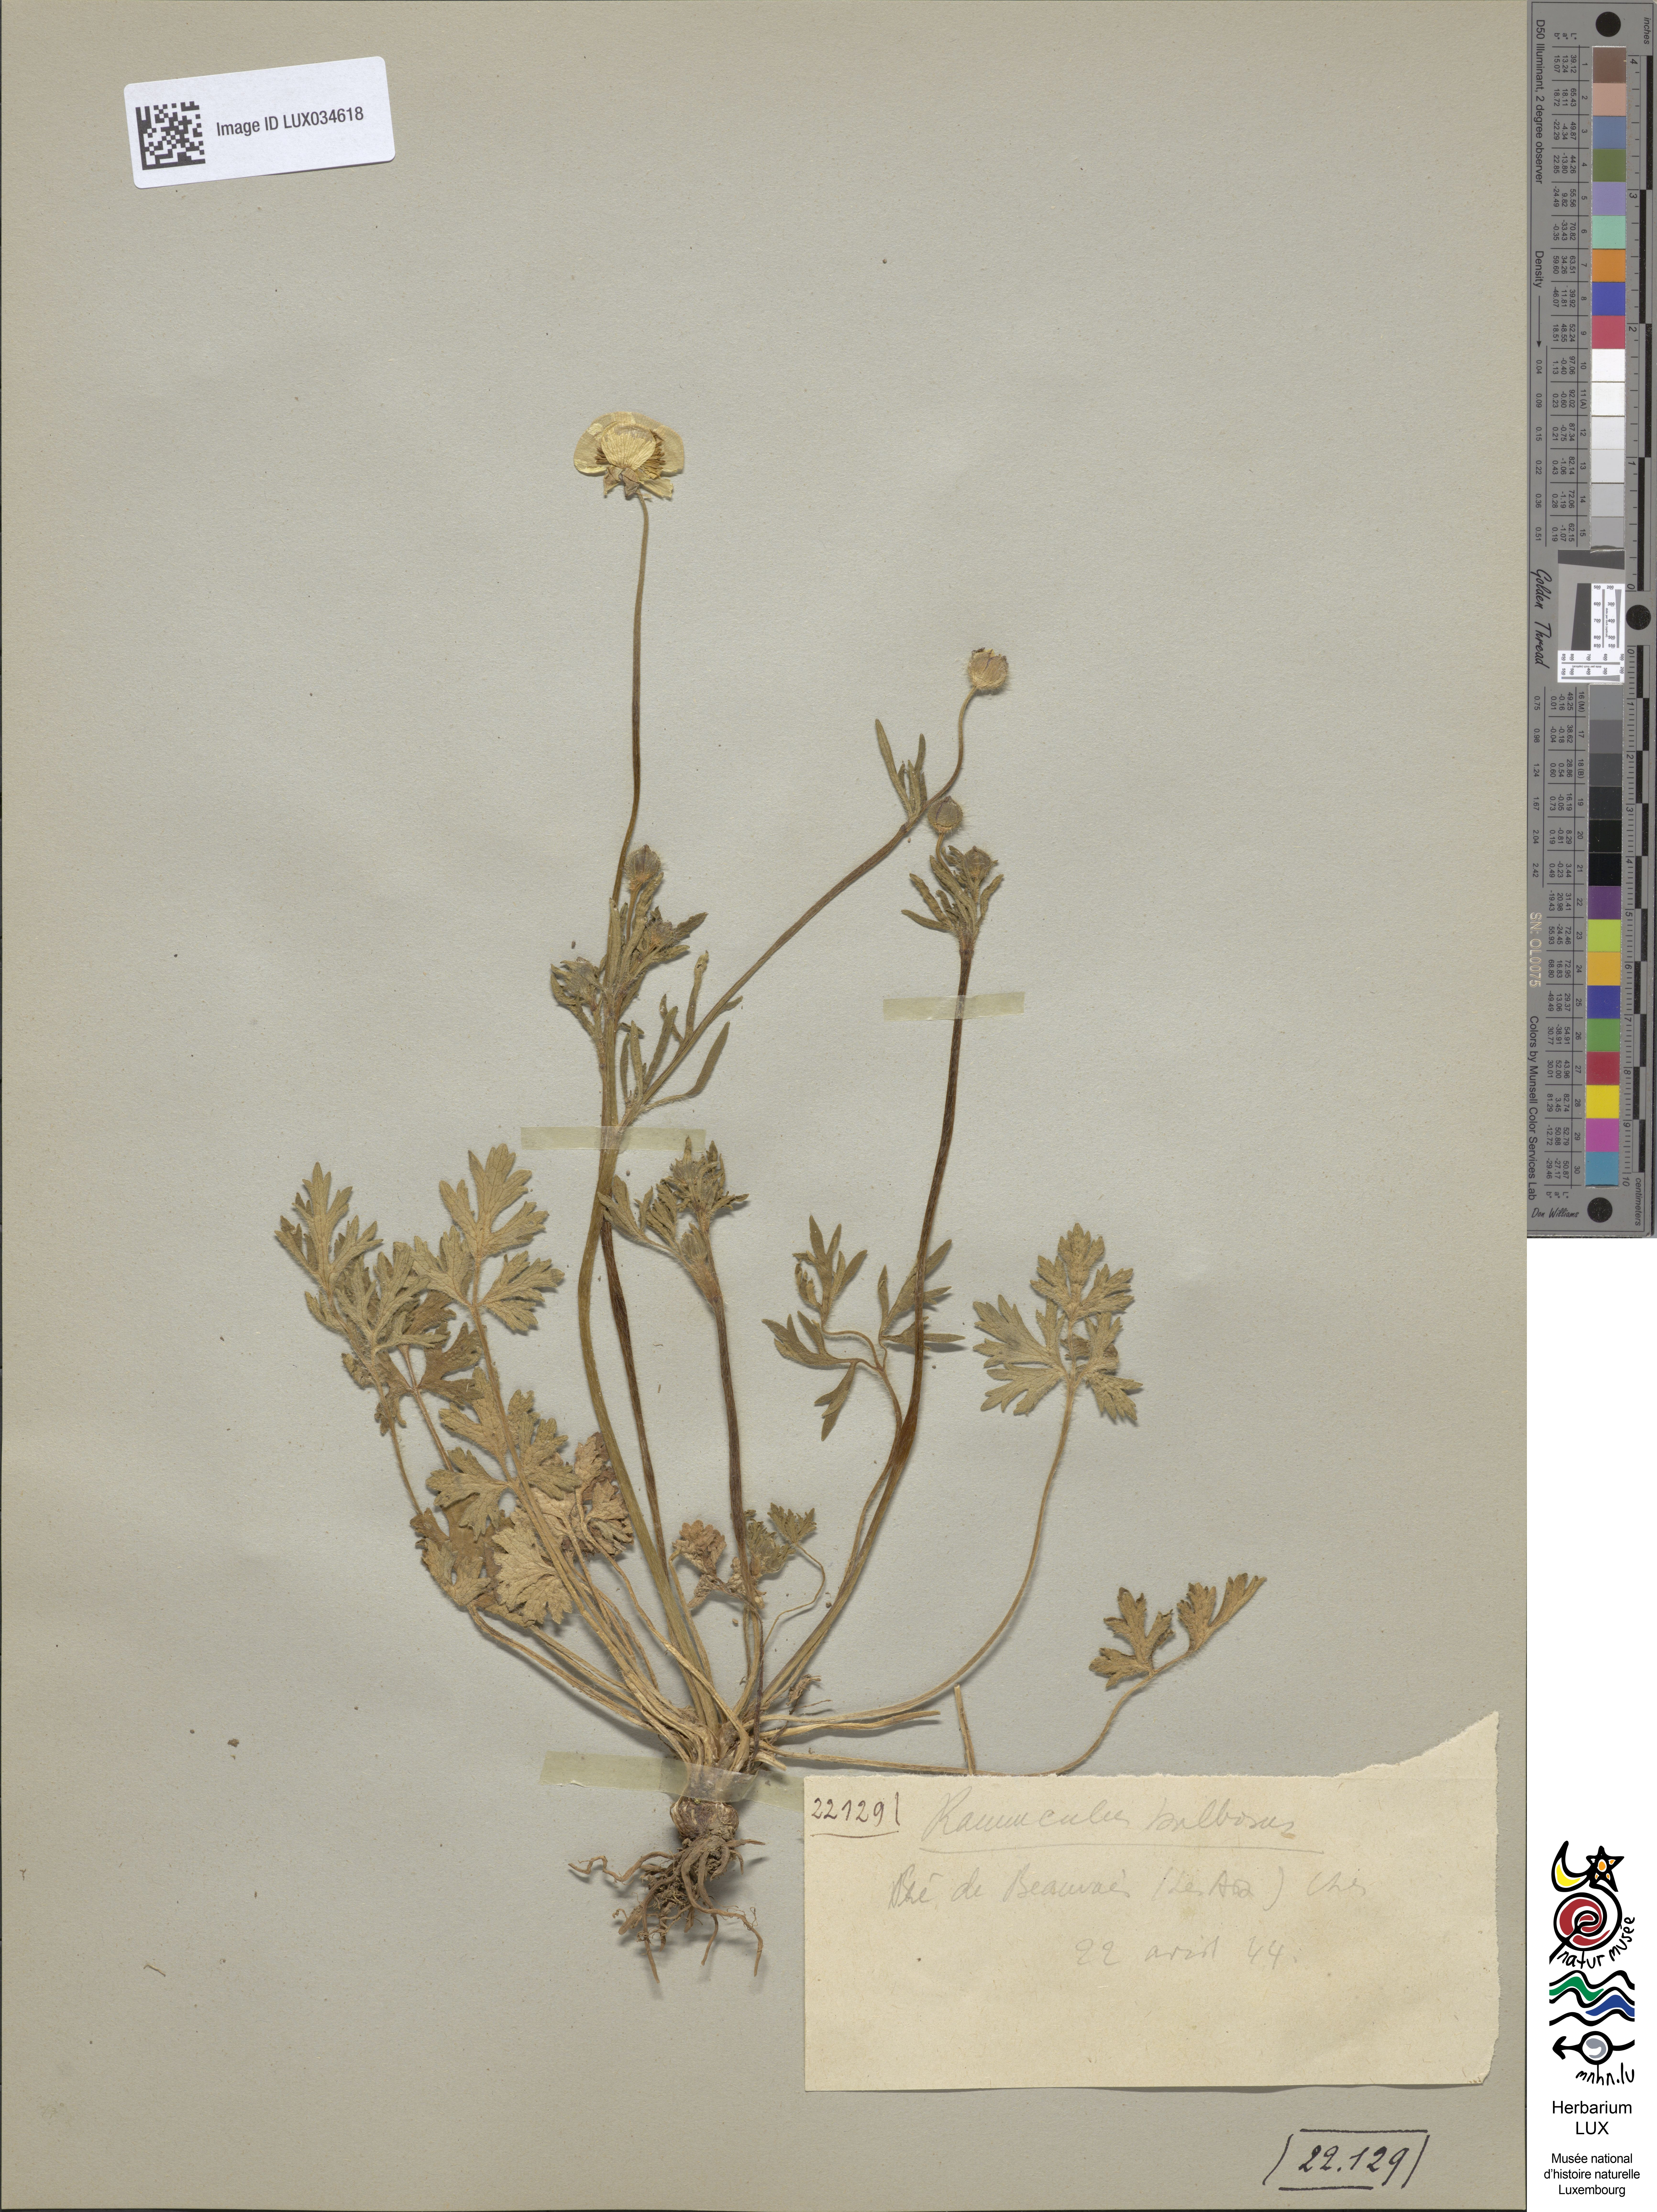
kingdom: Plantae
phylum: Tracheophyta
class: Magnoliopsida
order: Ranunculales
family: Ranunculaceae
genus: Ranunculus
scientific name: Ranunculus bulbosus
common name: Bulbous buttercup
